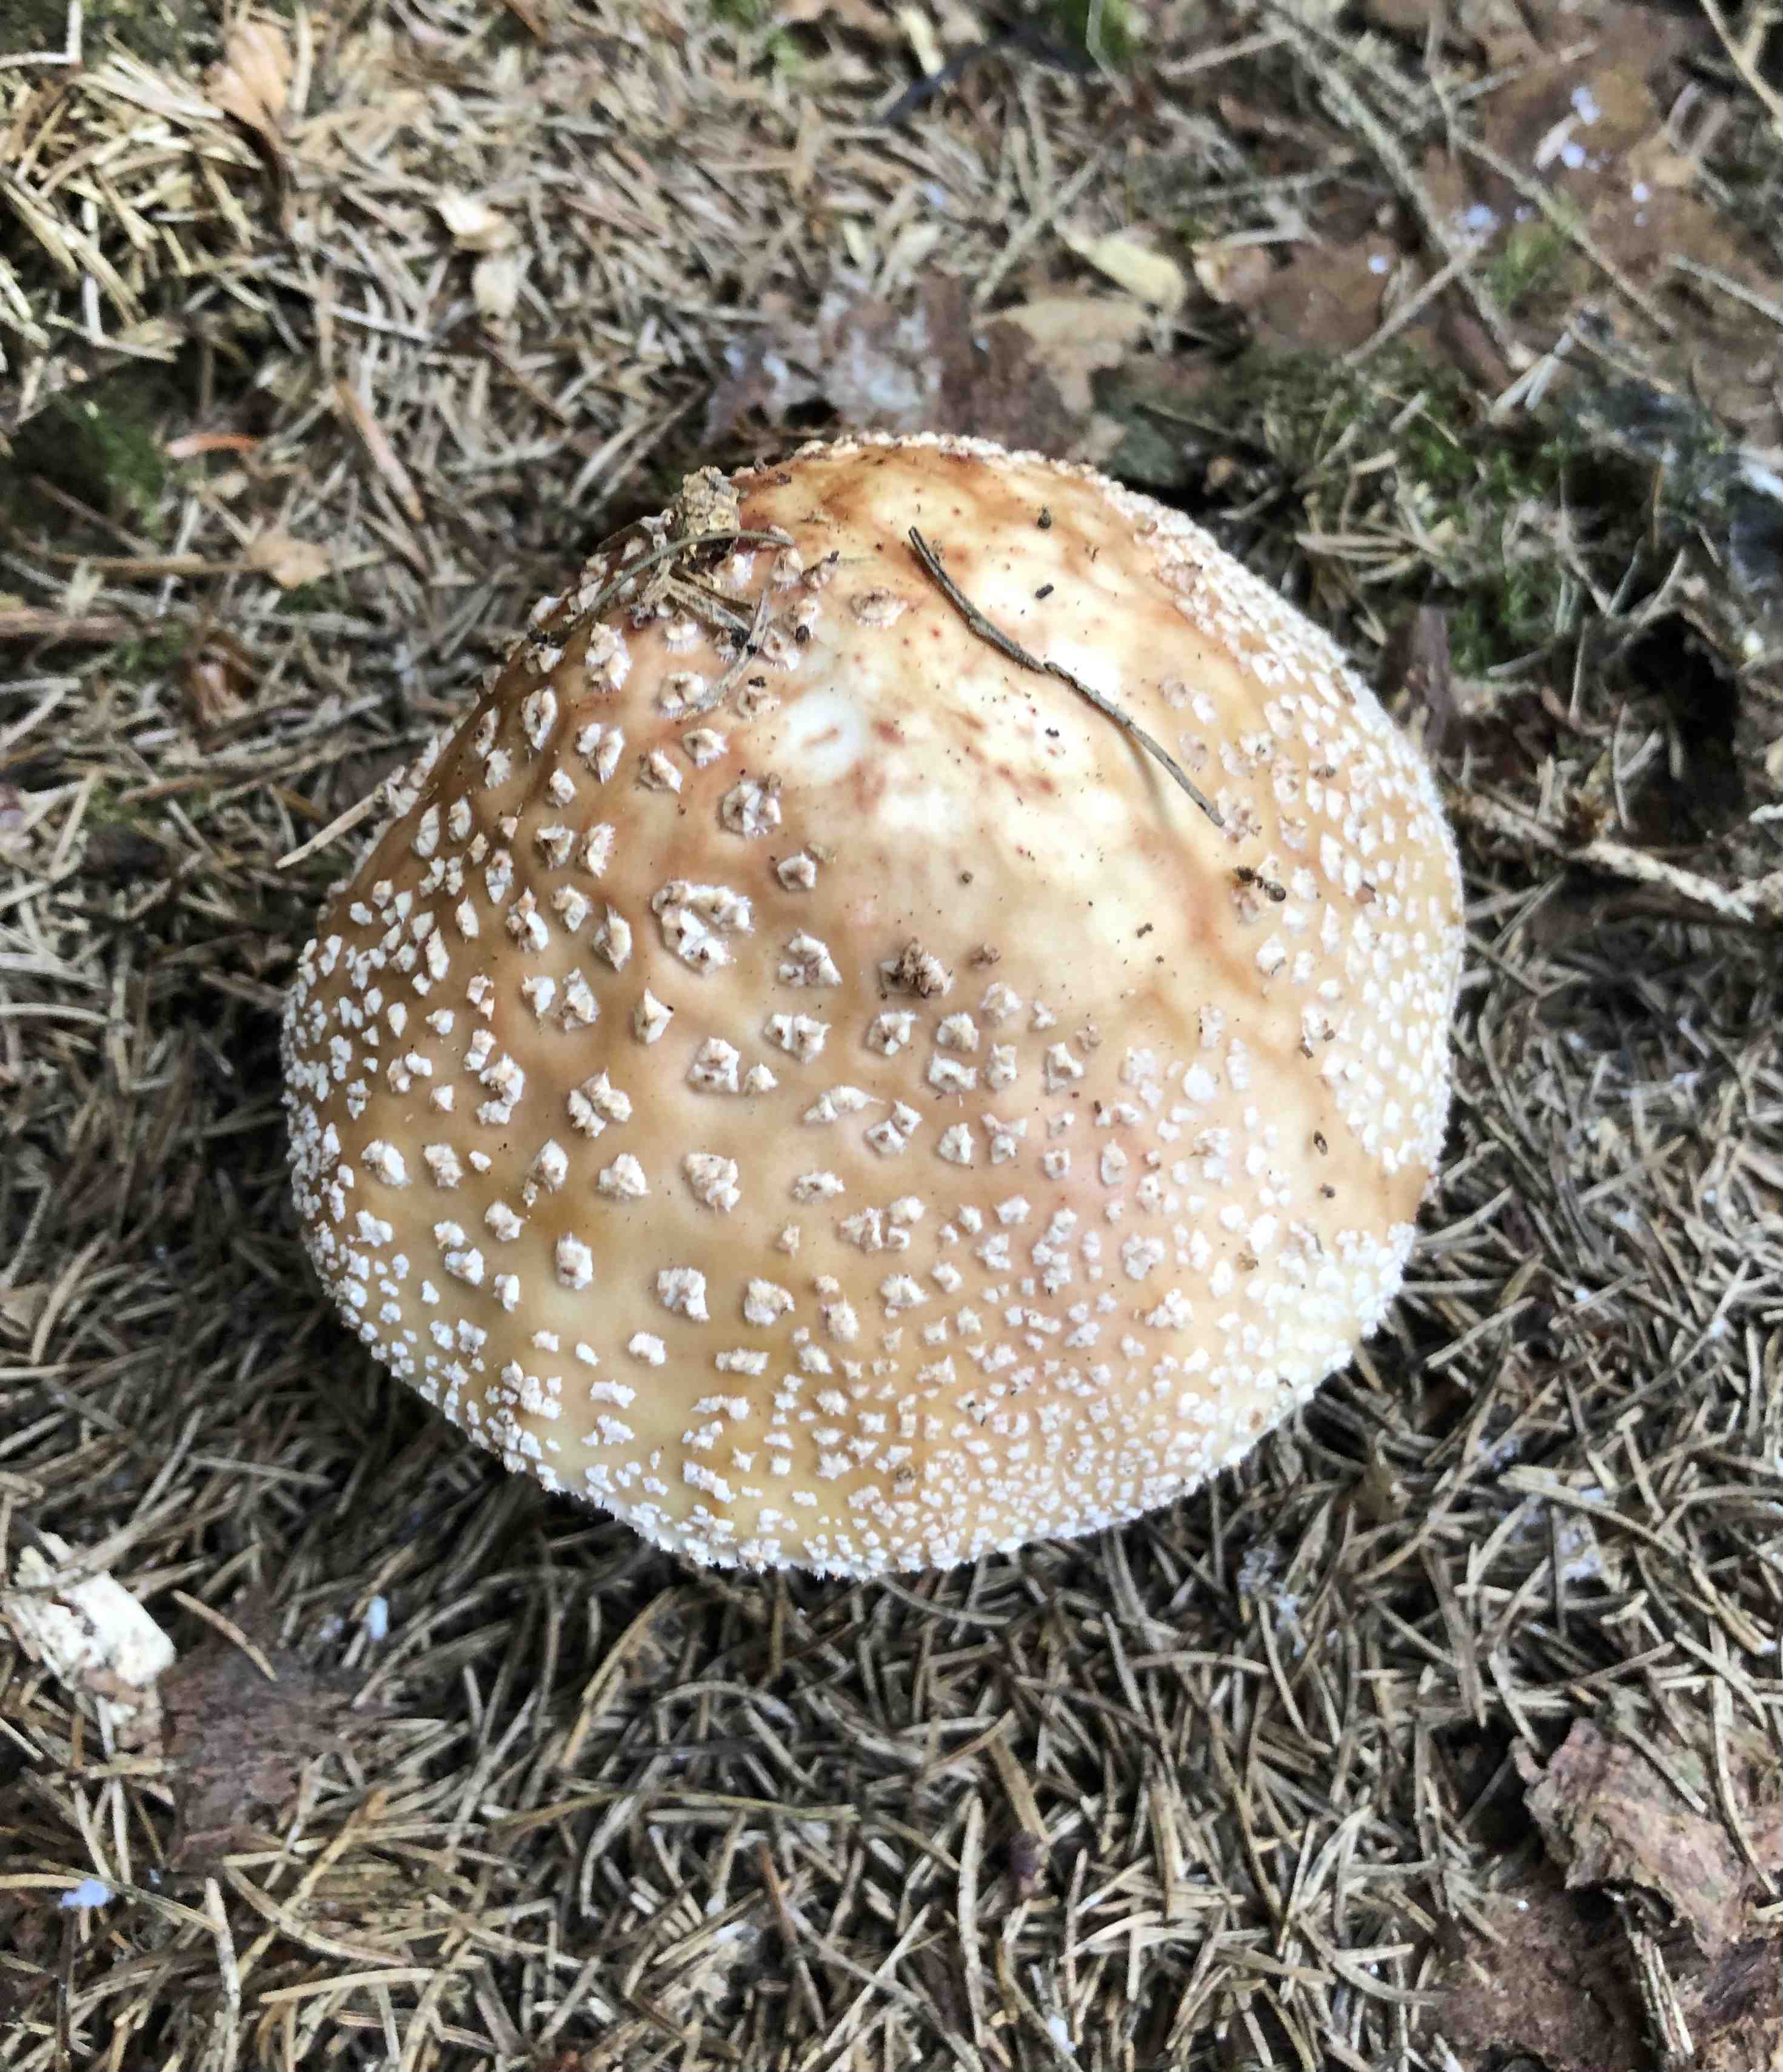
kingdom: Fungi
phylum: Basidiomycota
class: Agaricomycetes
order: Agaricales
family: Amanitaceae
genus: Amanita
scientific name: Amanita rubescens
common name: rødmende fluesvamp
